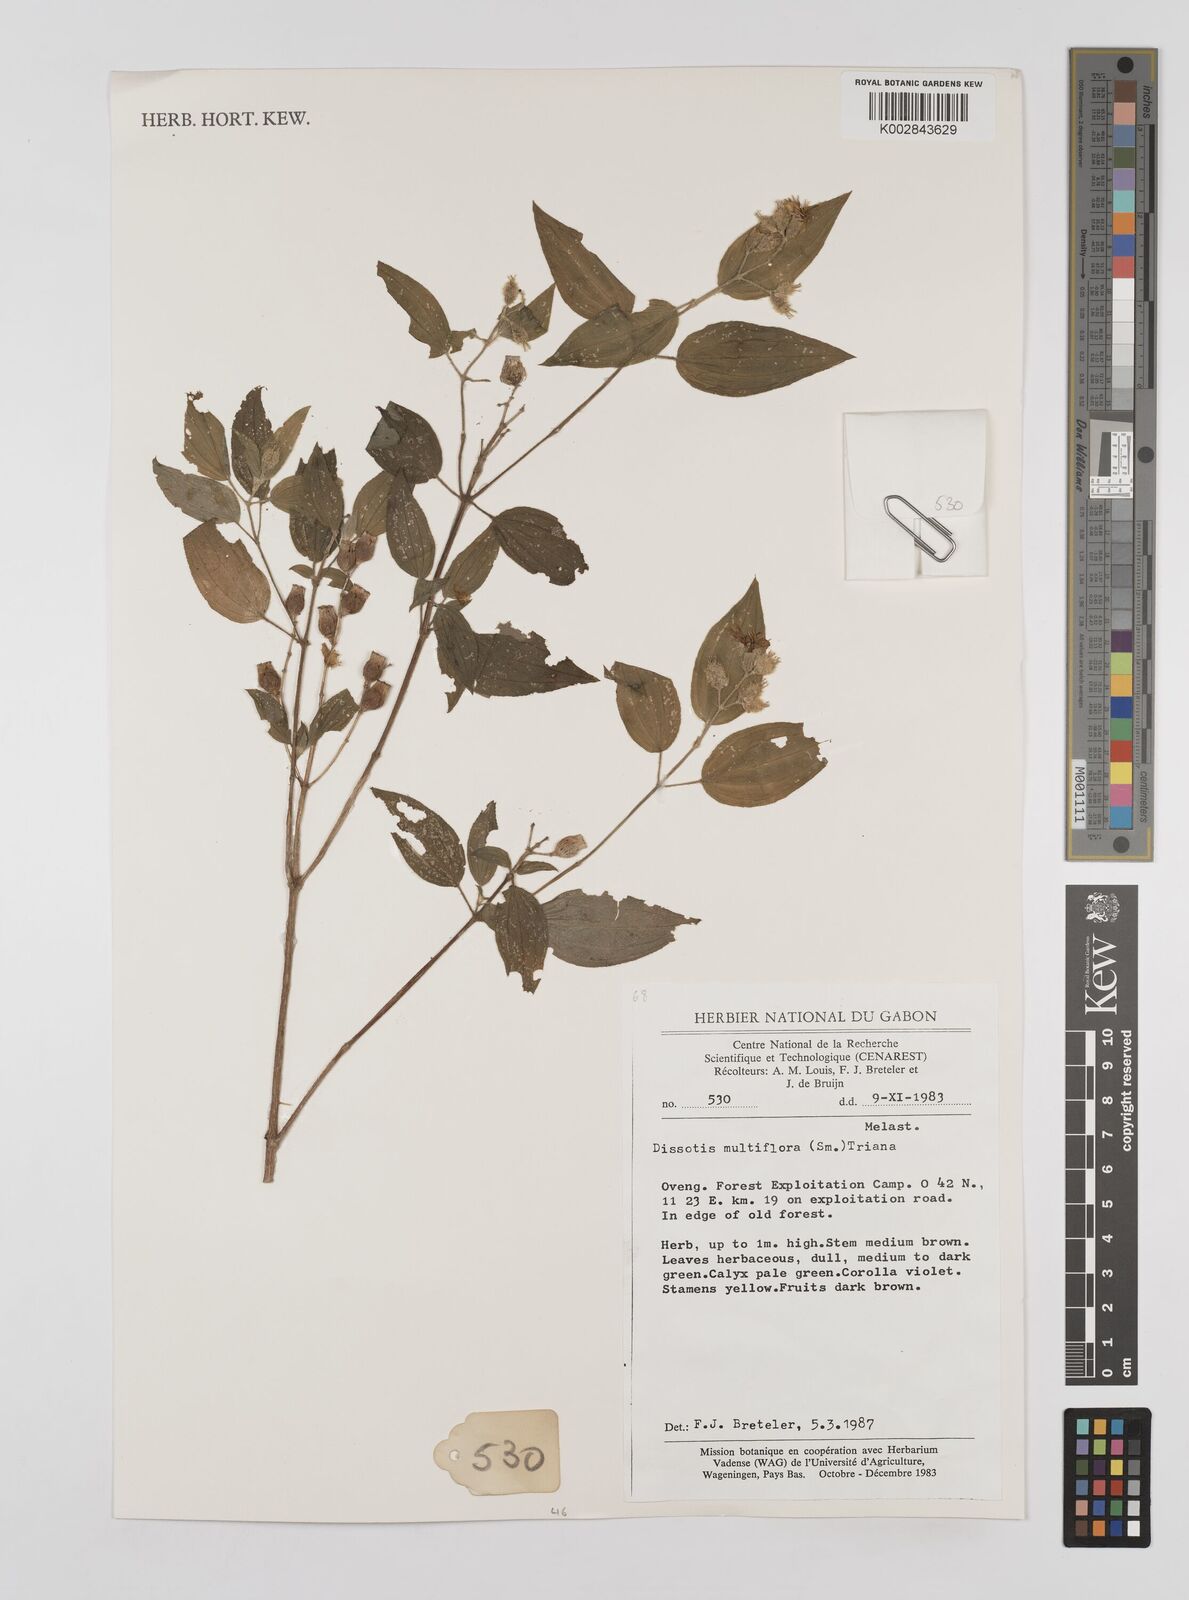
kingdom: Plantae
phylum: Tracheophyta
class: Magnoliopsida
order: Myrtales
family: Melastomataceae
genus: Dupineta
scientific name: Dupineta multiflora
